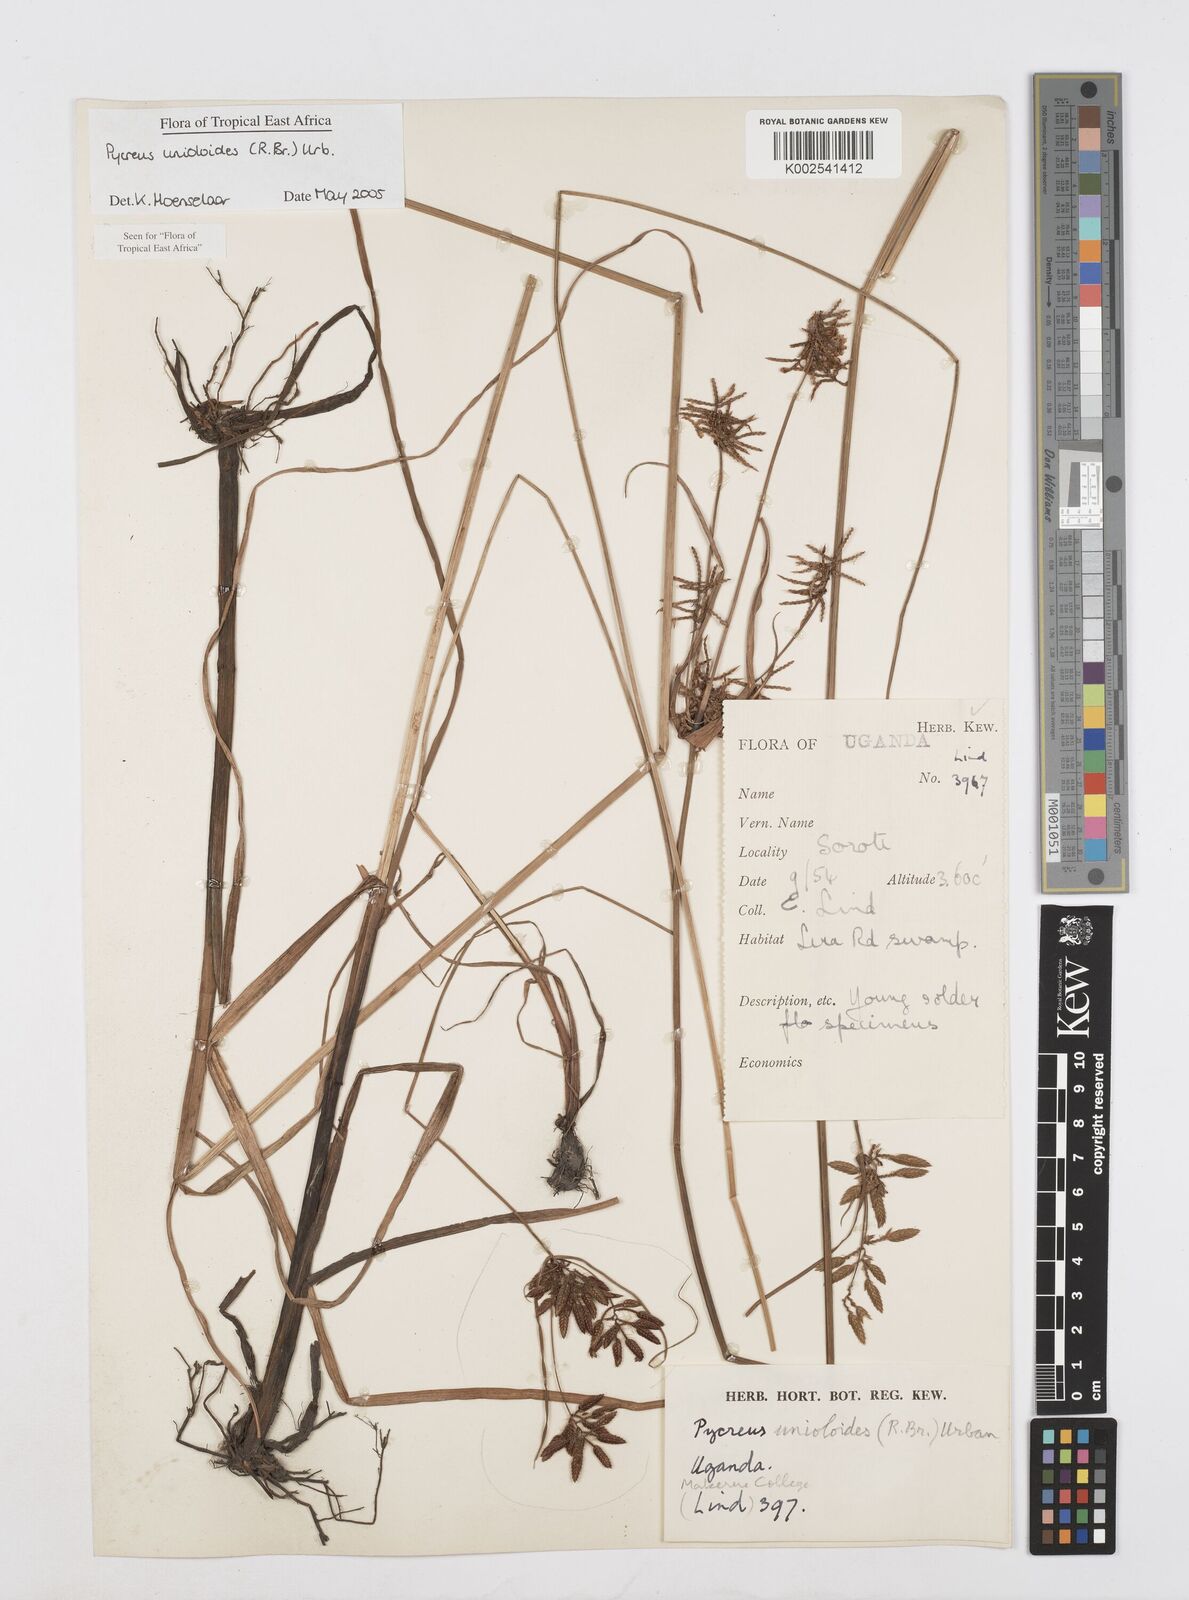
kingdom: Plantae
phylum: Tracheophyta
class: Liliopsida
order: Poales
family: Cyperaceae
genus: Cyperus
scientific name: Cyperus unioloides
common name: Uniola flatsedge
